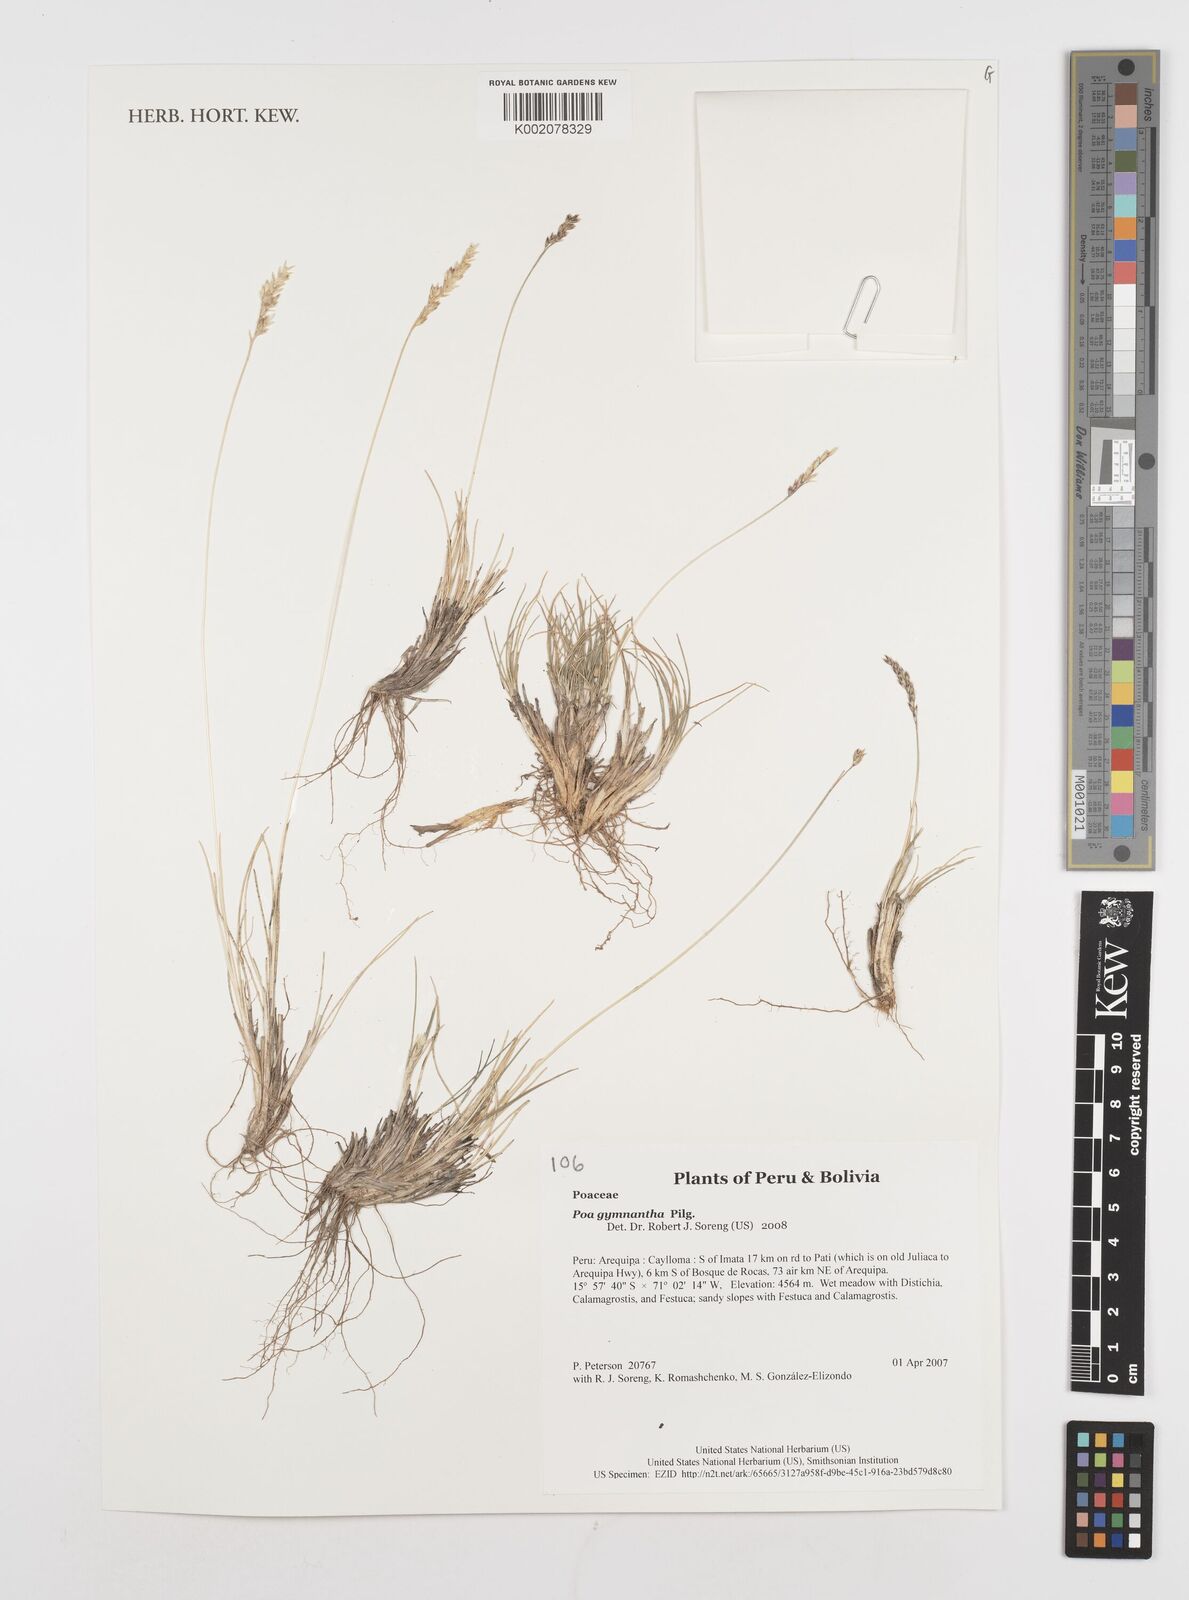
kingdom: Plantae
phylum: Tracheophyta
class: Liliopsida
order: Poales
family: Poaceae
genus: Poa
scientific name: Poa gymnantha
